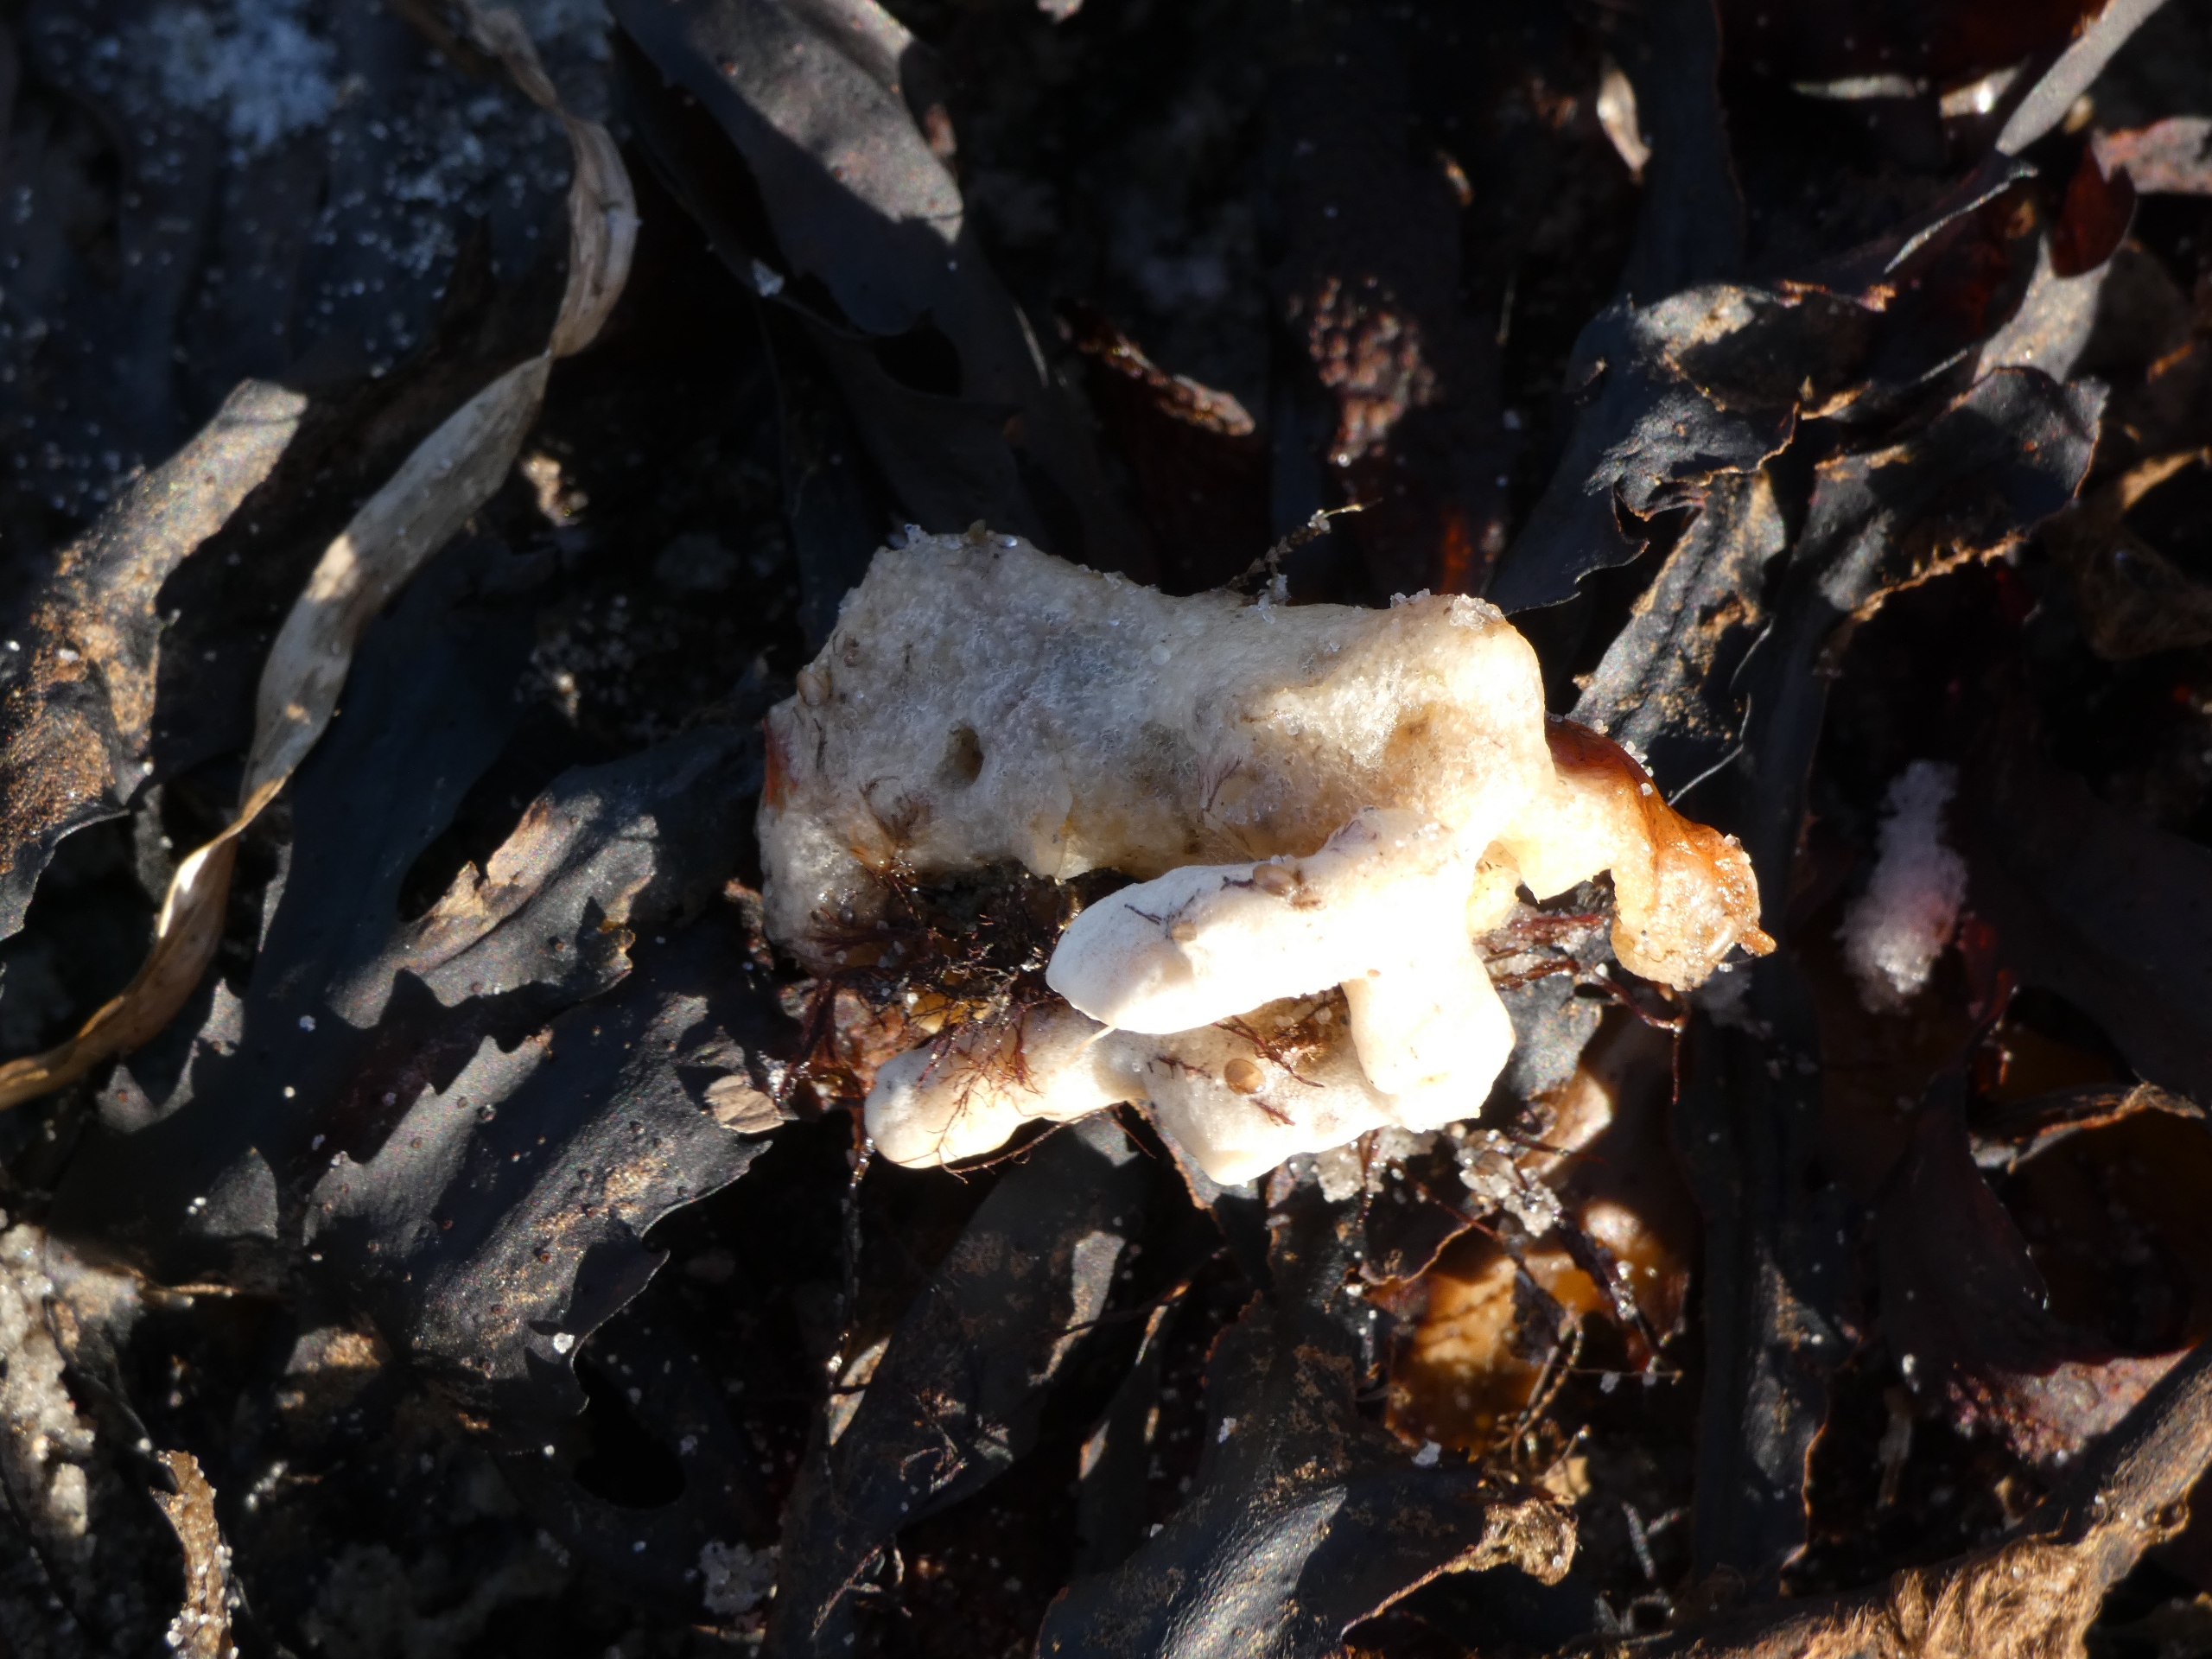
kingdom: Animalia
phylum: Porifera
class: Demospongiae
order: Suberitida
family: Halichondriidae
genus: Halichondria
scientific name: Halichondria panicea
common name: Brødkrummesvamp
